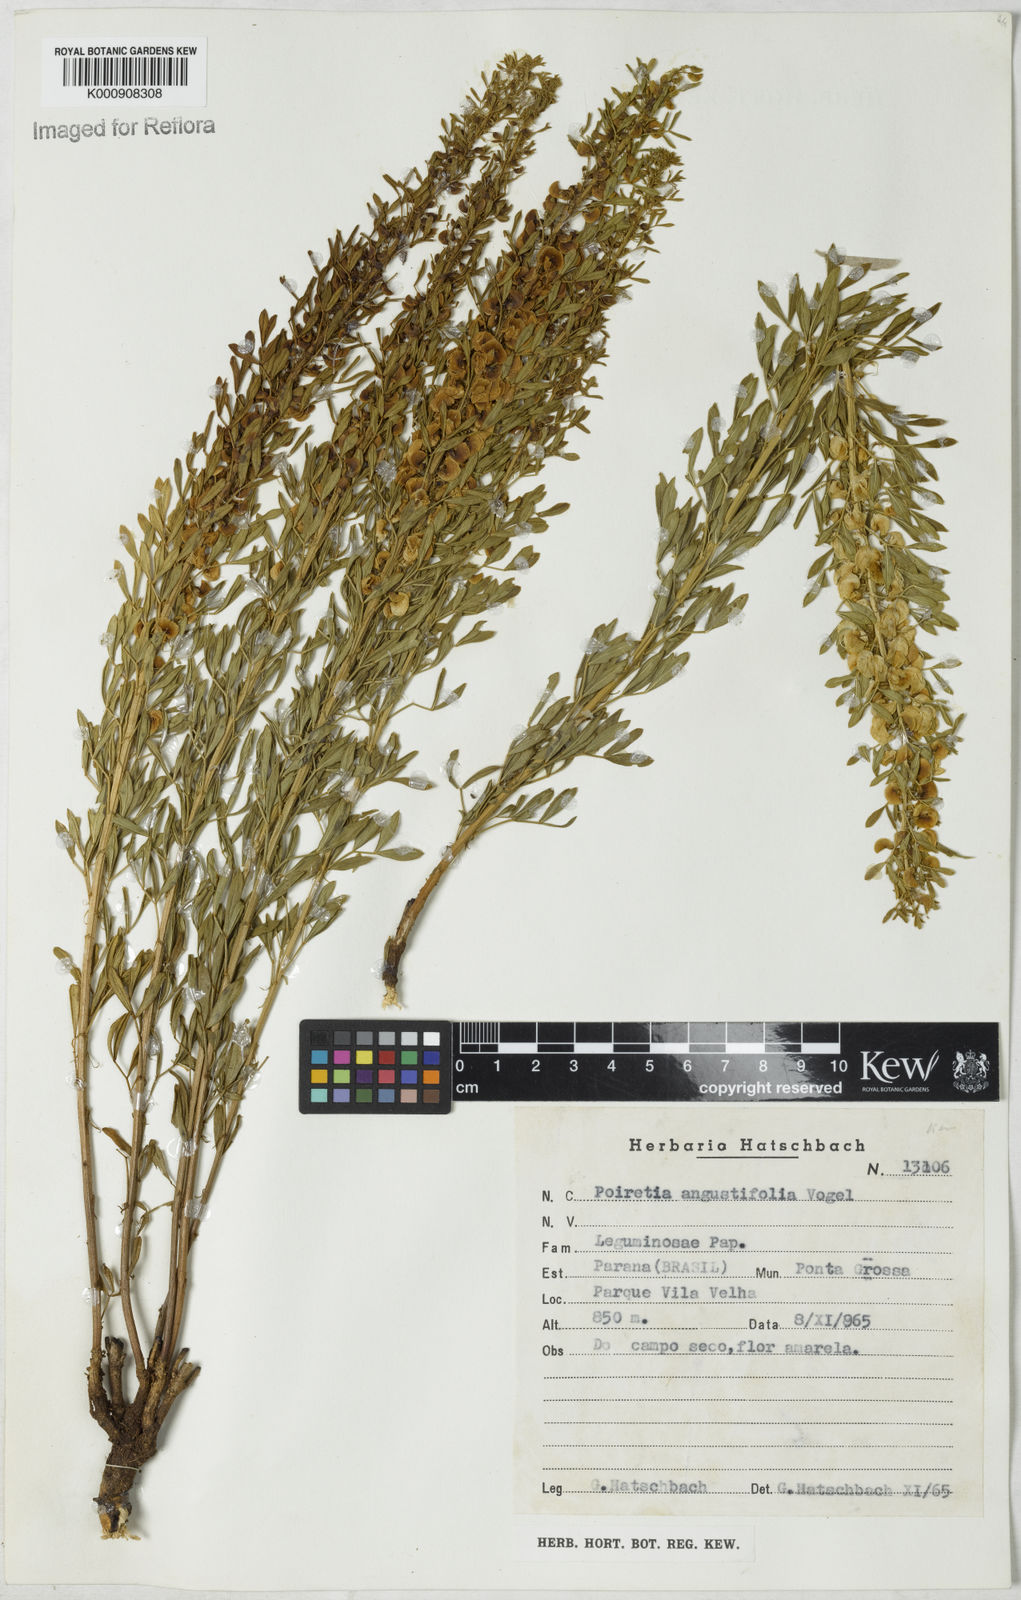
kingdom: Plantae
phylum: Tracheophyta
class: Magnoliopsida
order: Fabales
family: Fabaceae
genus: Poiretia
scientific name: Poiretia angustifolia
